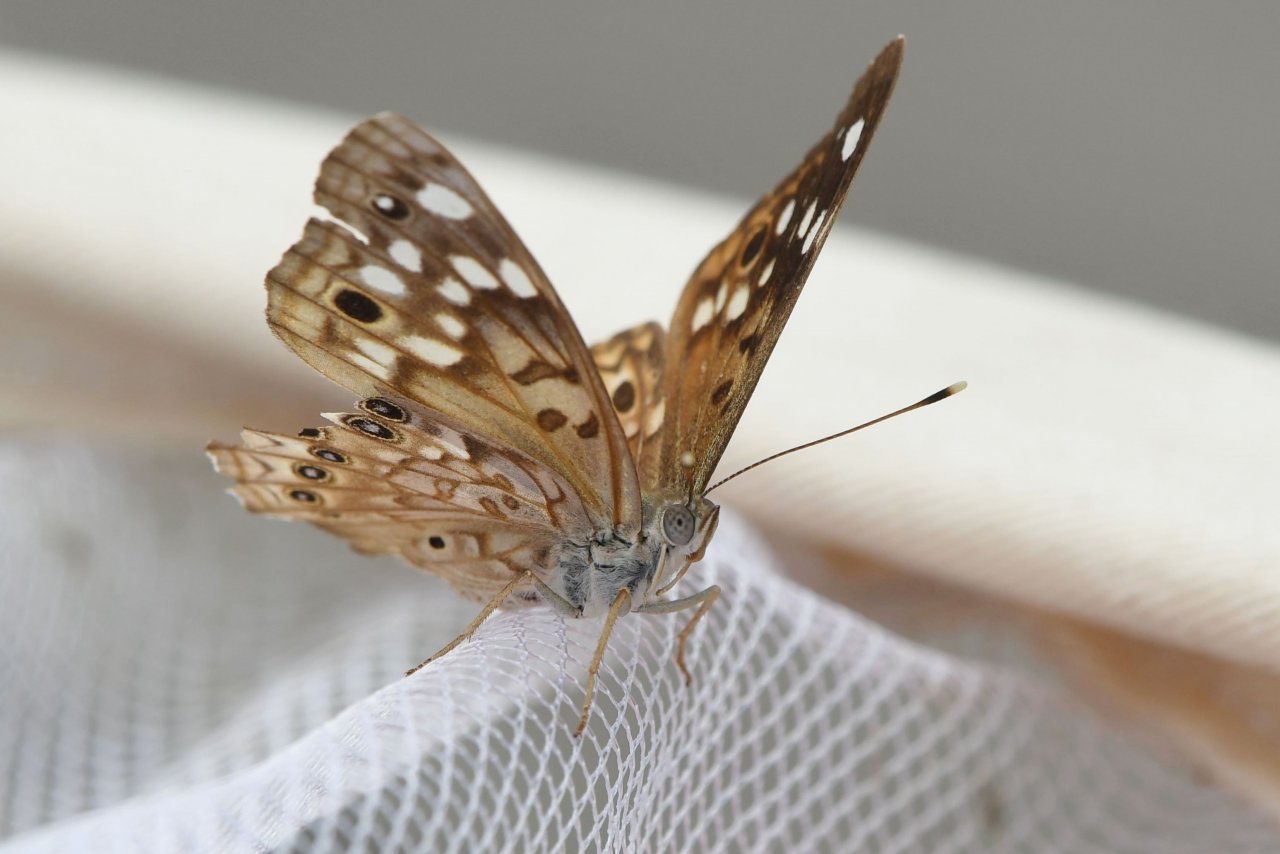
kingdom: Animalia
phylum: Arthropoda
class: Insecta
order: Lepidoptera
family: Nymphalidae
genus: Asterocampa
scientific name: Asterocampa celtis
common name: Hackberry Emperor
